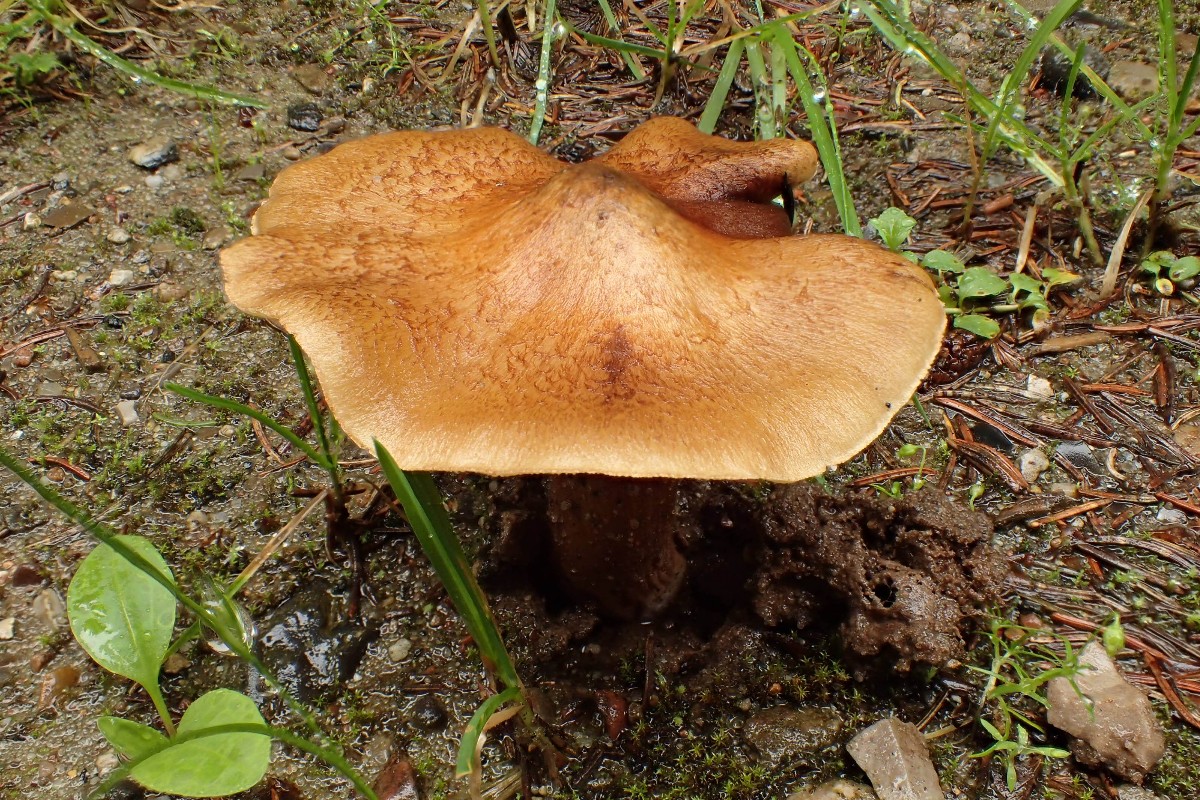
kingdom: Fungi
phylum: Basidiomycota
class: Agaricomycetes
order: Agaricales
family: Inocybaceae
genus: Pseudosperma
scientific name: Pseudosperma
